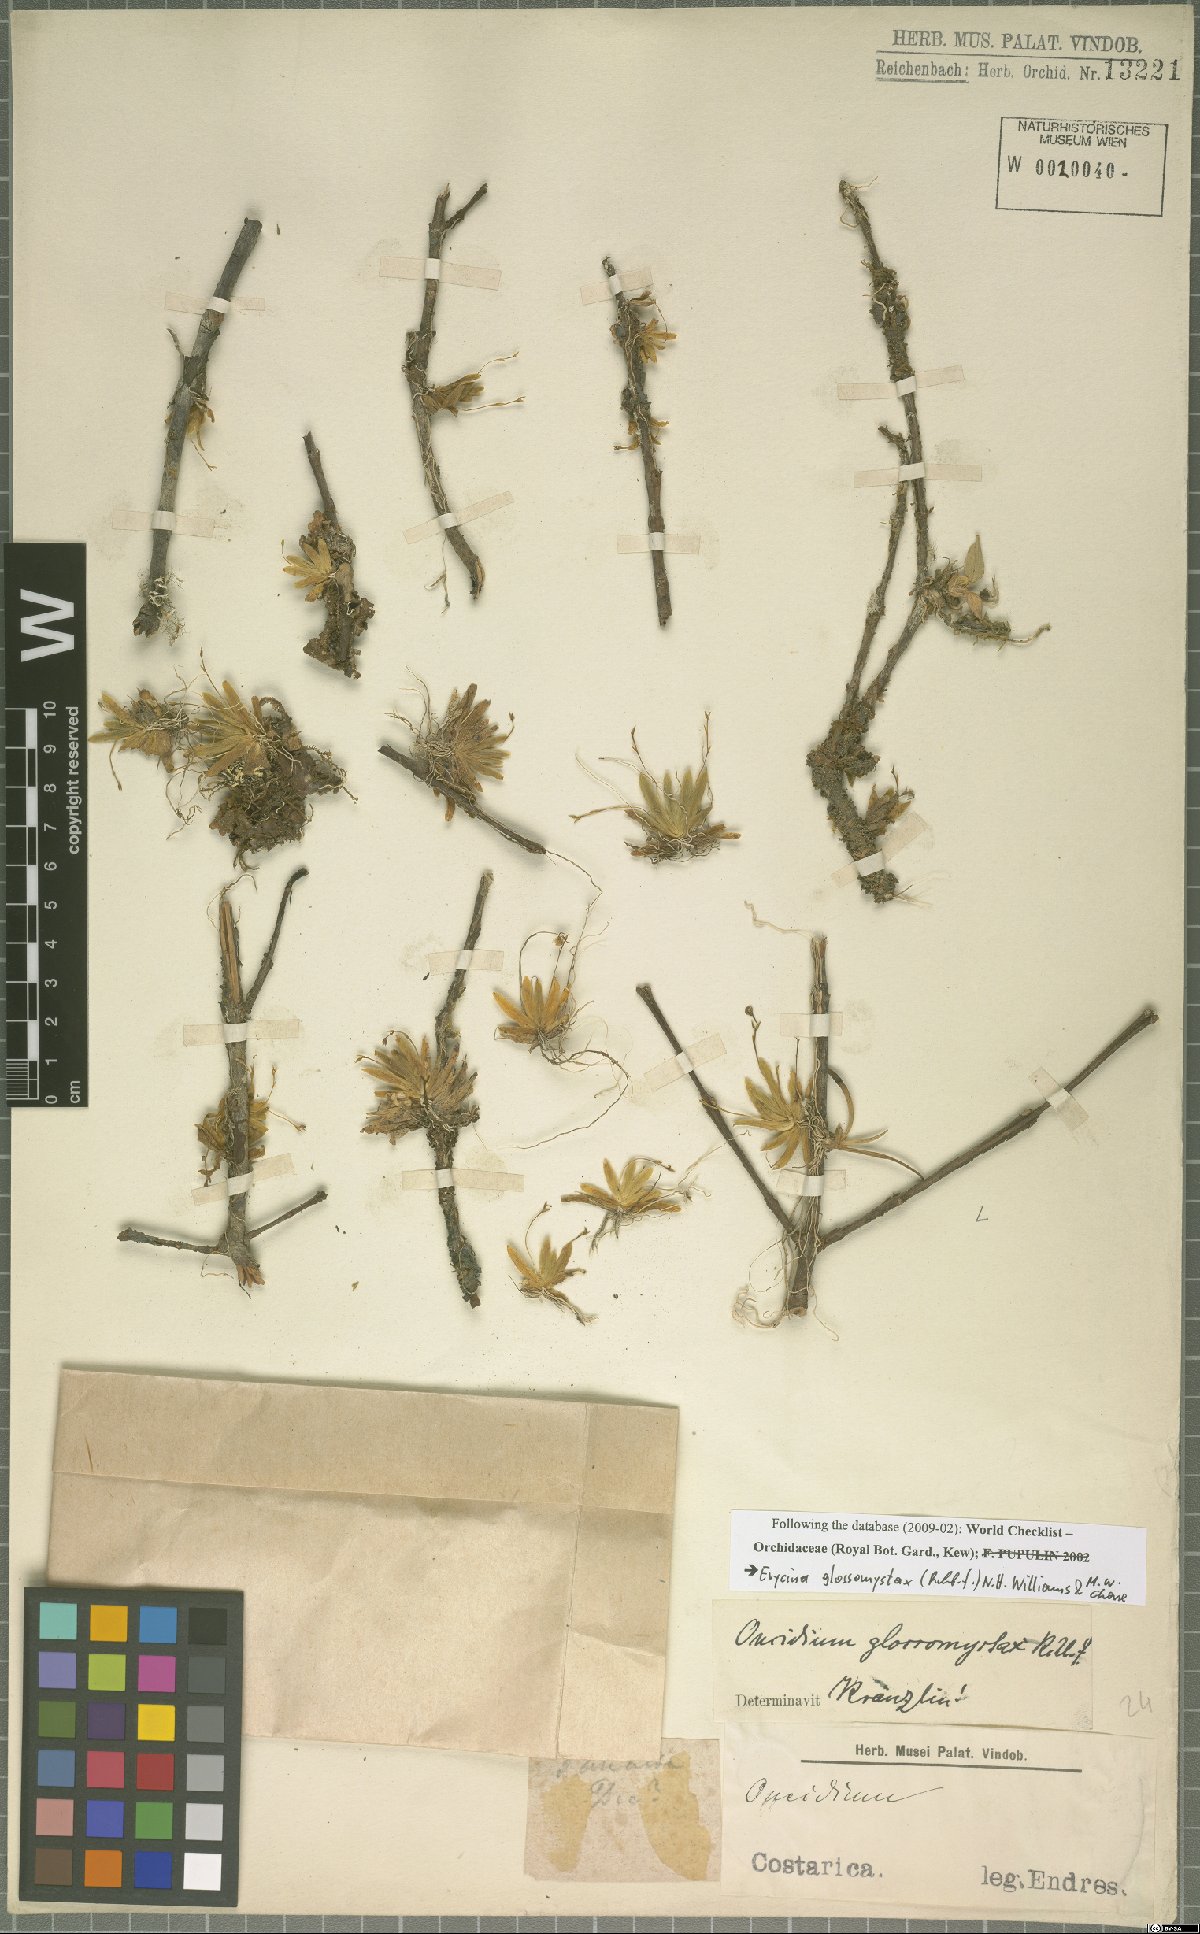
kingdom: Plantae
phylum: Tracheophyta
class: Liliopsida
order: Asparagales
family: Orchidaceae
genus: Erycina
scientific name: Erycina glossomystax
